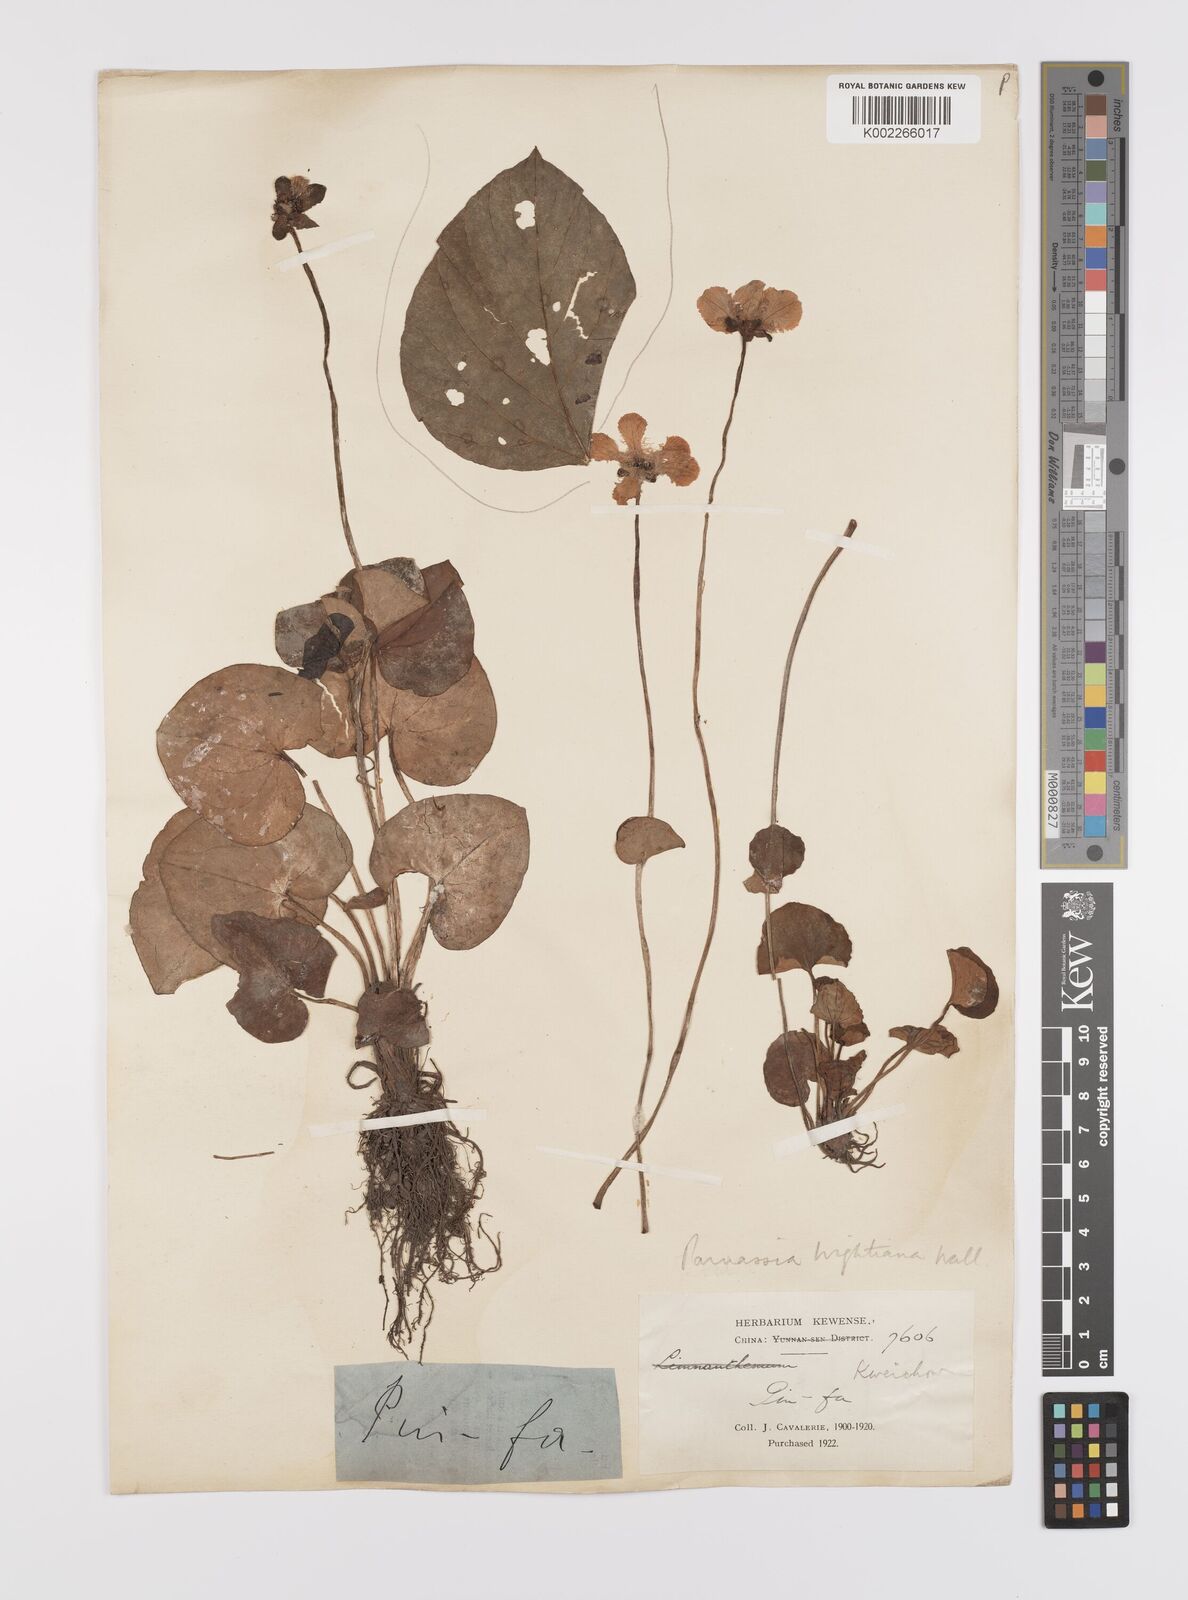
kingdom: Plantae
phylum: Tracheophyta
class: Magnoliopsida
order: Celastrales
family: Parnassiaceae
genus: Parnassia
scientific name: Parnassia wightiana
